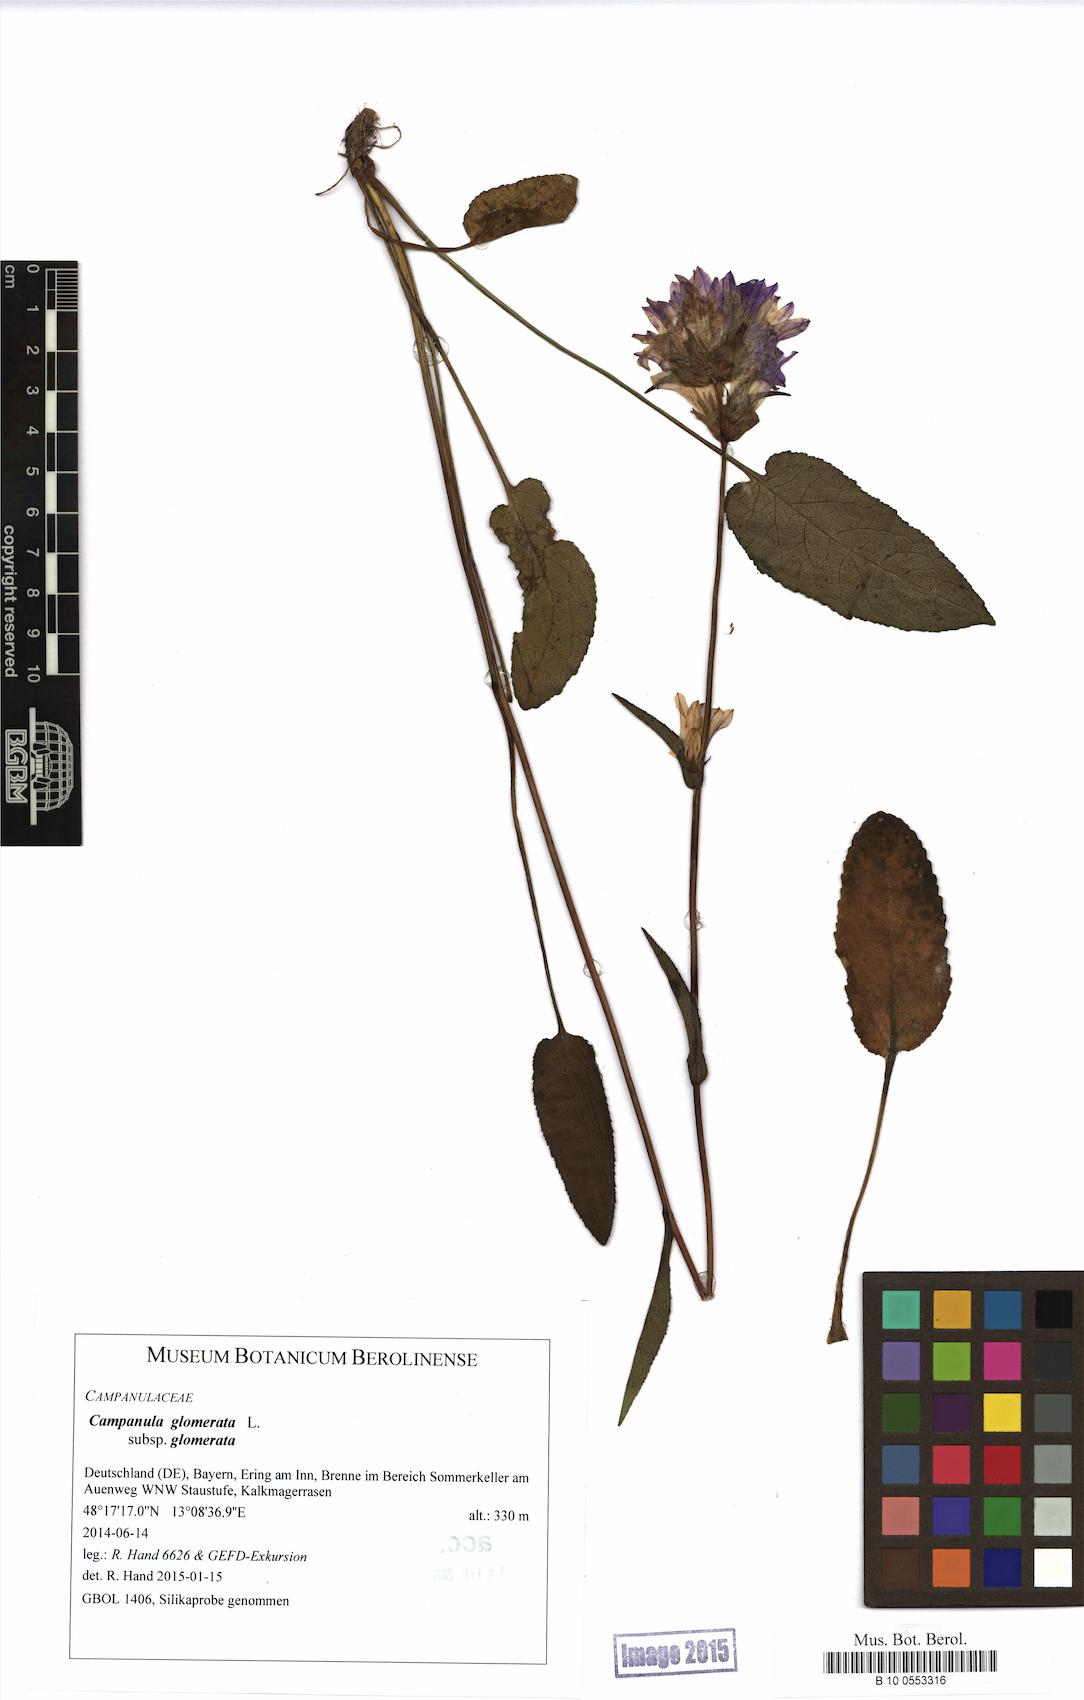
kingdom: Plantae
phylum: Tracheophyta
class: Magnoliopsida
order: Asterales
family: Campanulaceae
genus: Campanula
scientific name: Campanula glomerata
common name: Clustered bellflower
